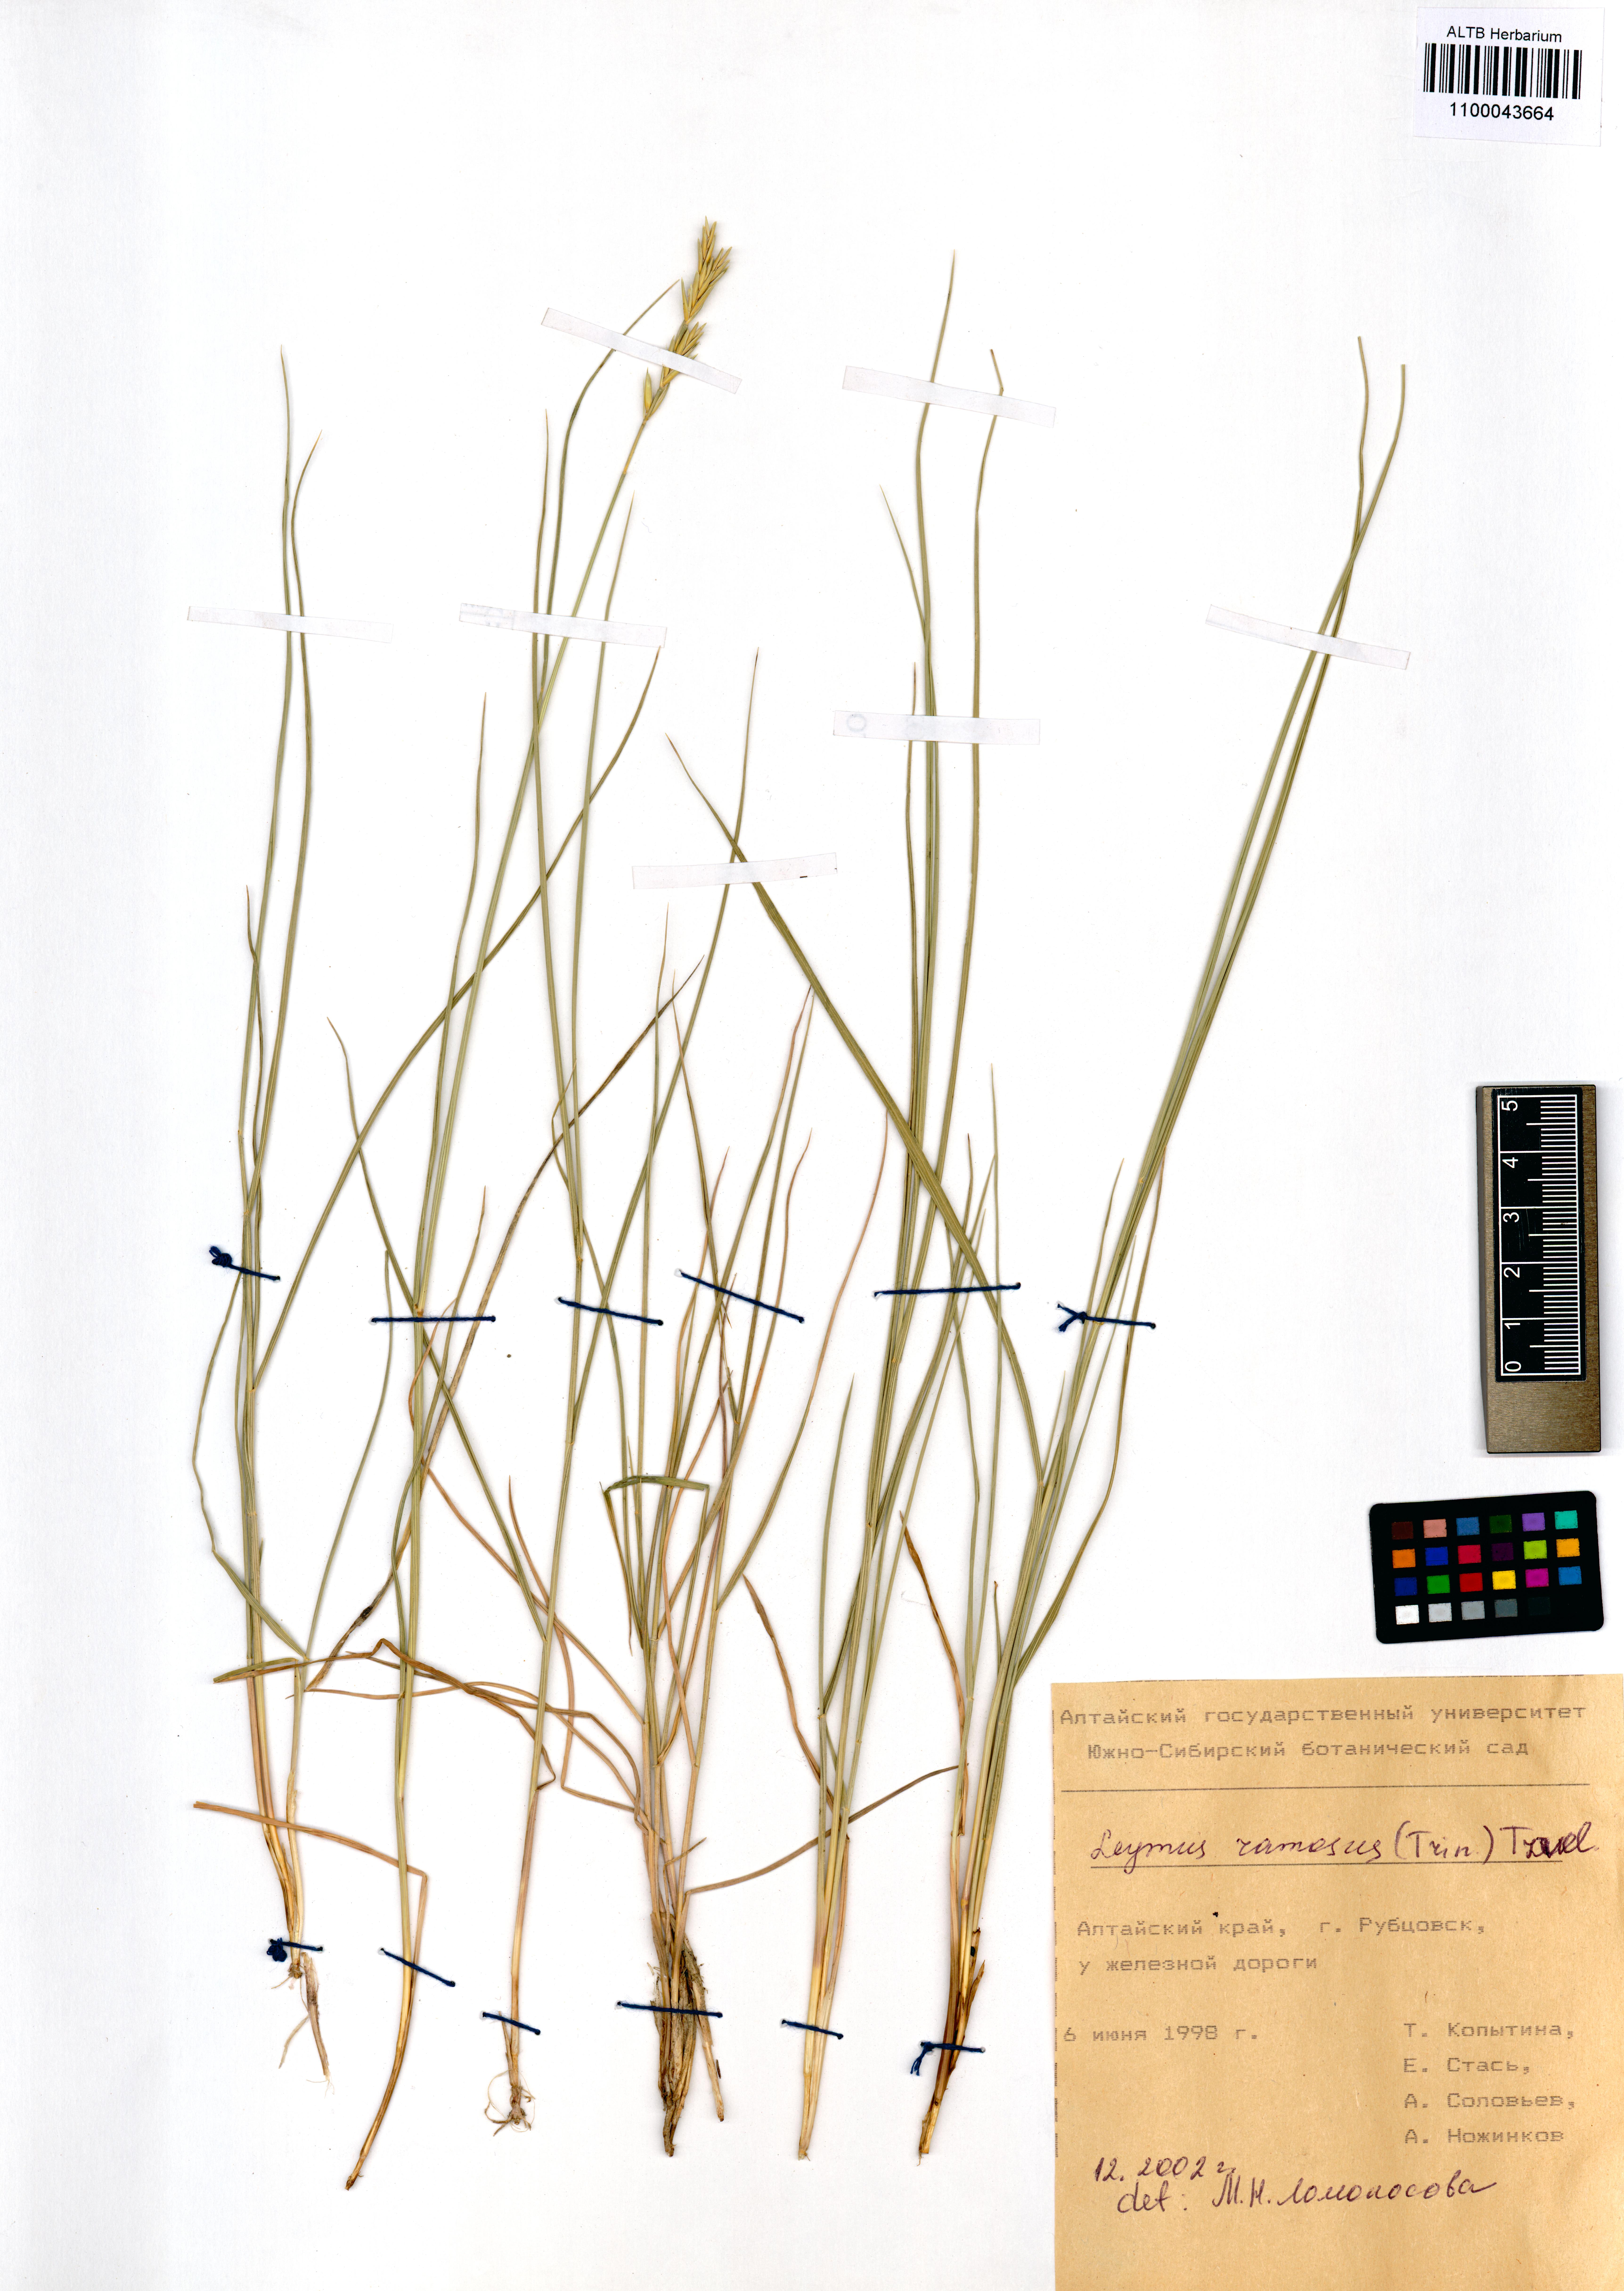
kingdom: Plantae
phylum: Tracheophyta
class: Liliopsida
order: Poales
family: Poaceae
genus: Leymus
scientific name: Leymus ramosus
